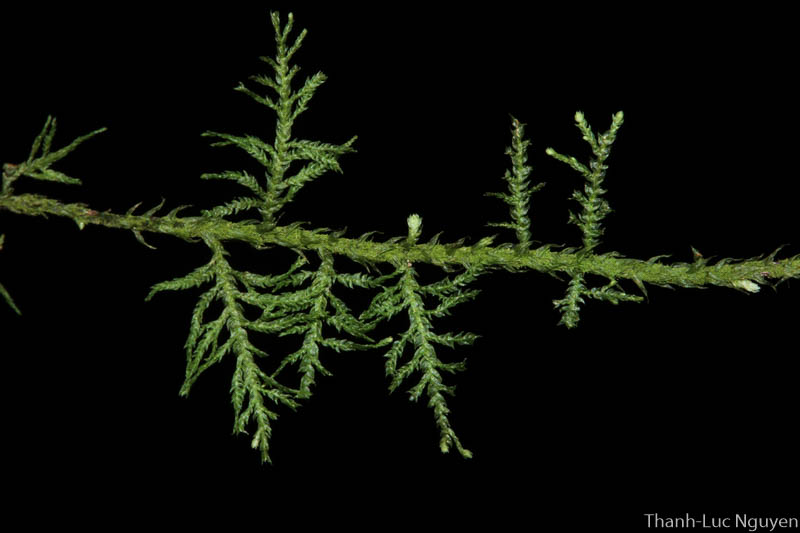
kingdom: Plantae
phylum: Bryophyta
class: Bryopsida
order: Hypnales
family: Thuidiaceae
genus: Thuidium
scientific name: Thuidium
